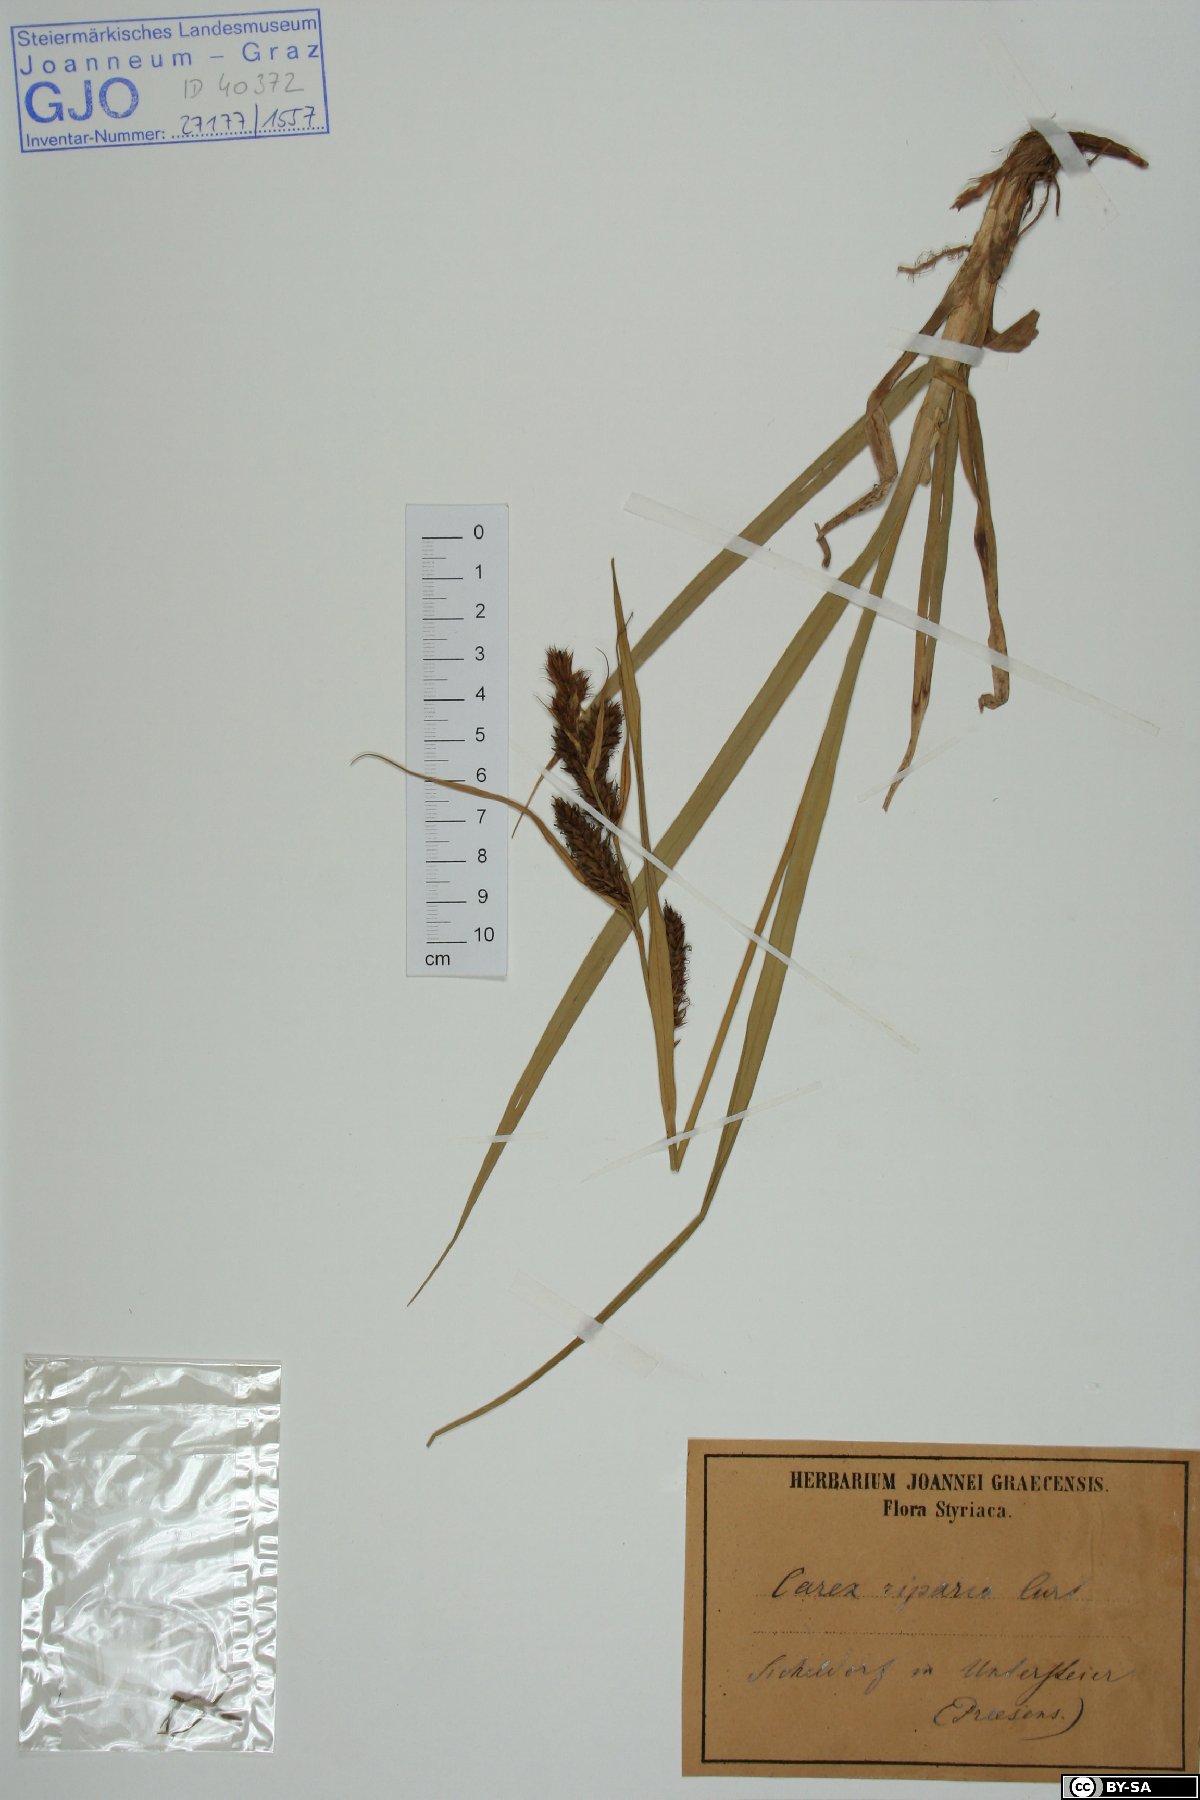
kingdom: Plantae
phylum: Tracheophyta
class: Liliopsida
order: Poales
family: Cyperaceae
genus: Carex
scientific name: Carex riparia
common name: Greater pond-sedge
